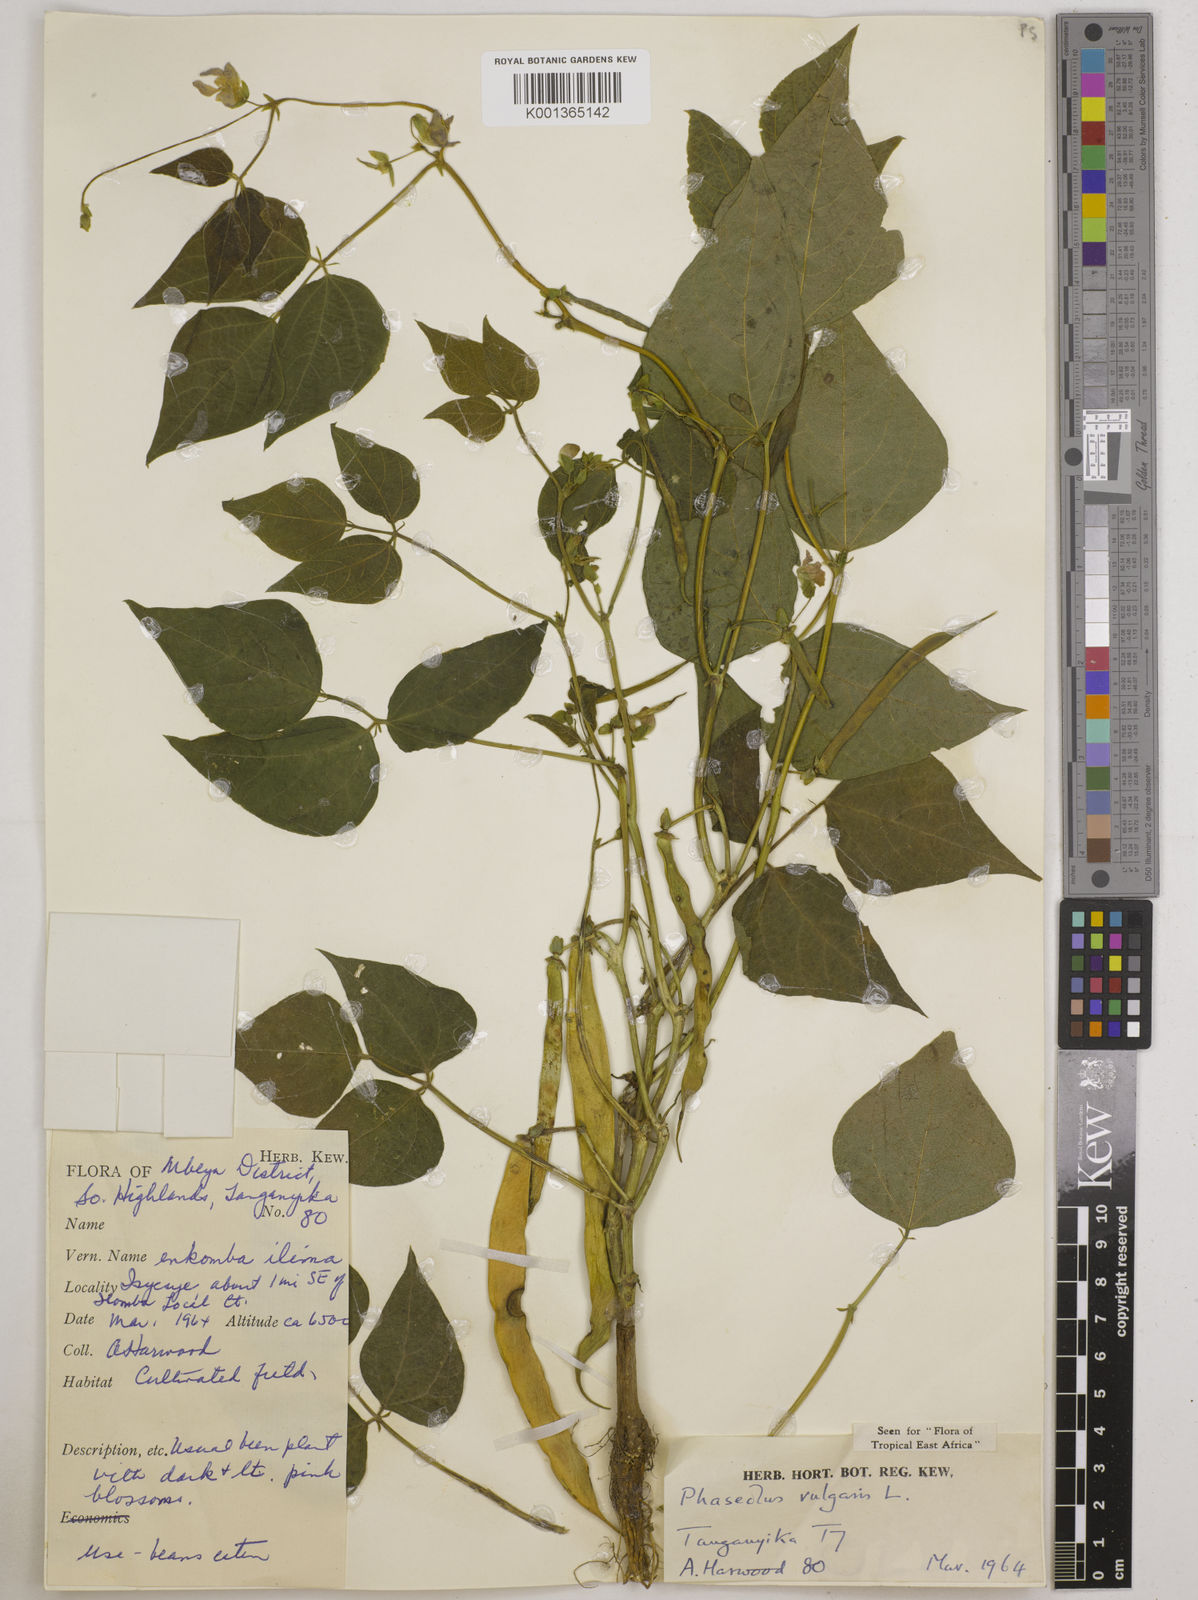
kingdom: Plantae
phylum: Tracheophyta
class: Magnoliopsida
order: Fabales
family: Fabaceae
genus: Phaseolus
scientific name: Phaseolus vulgaris
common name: Bean
